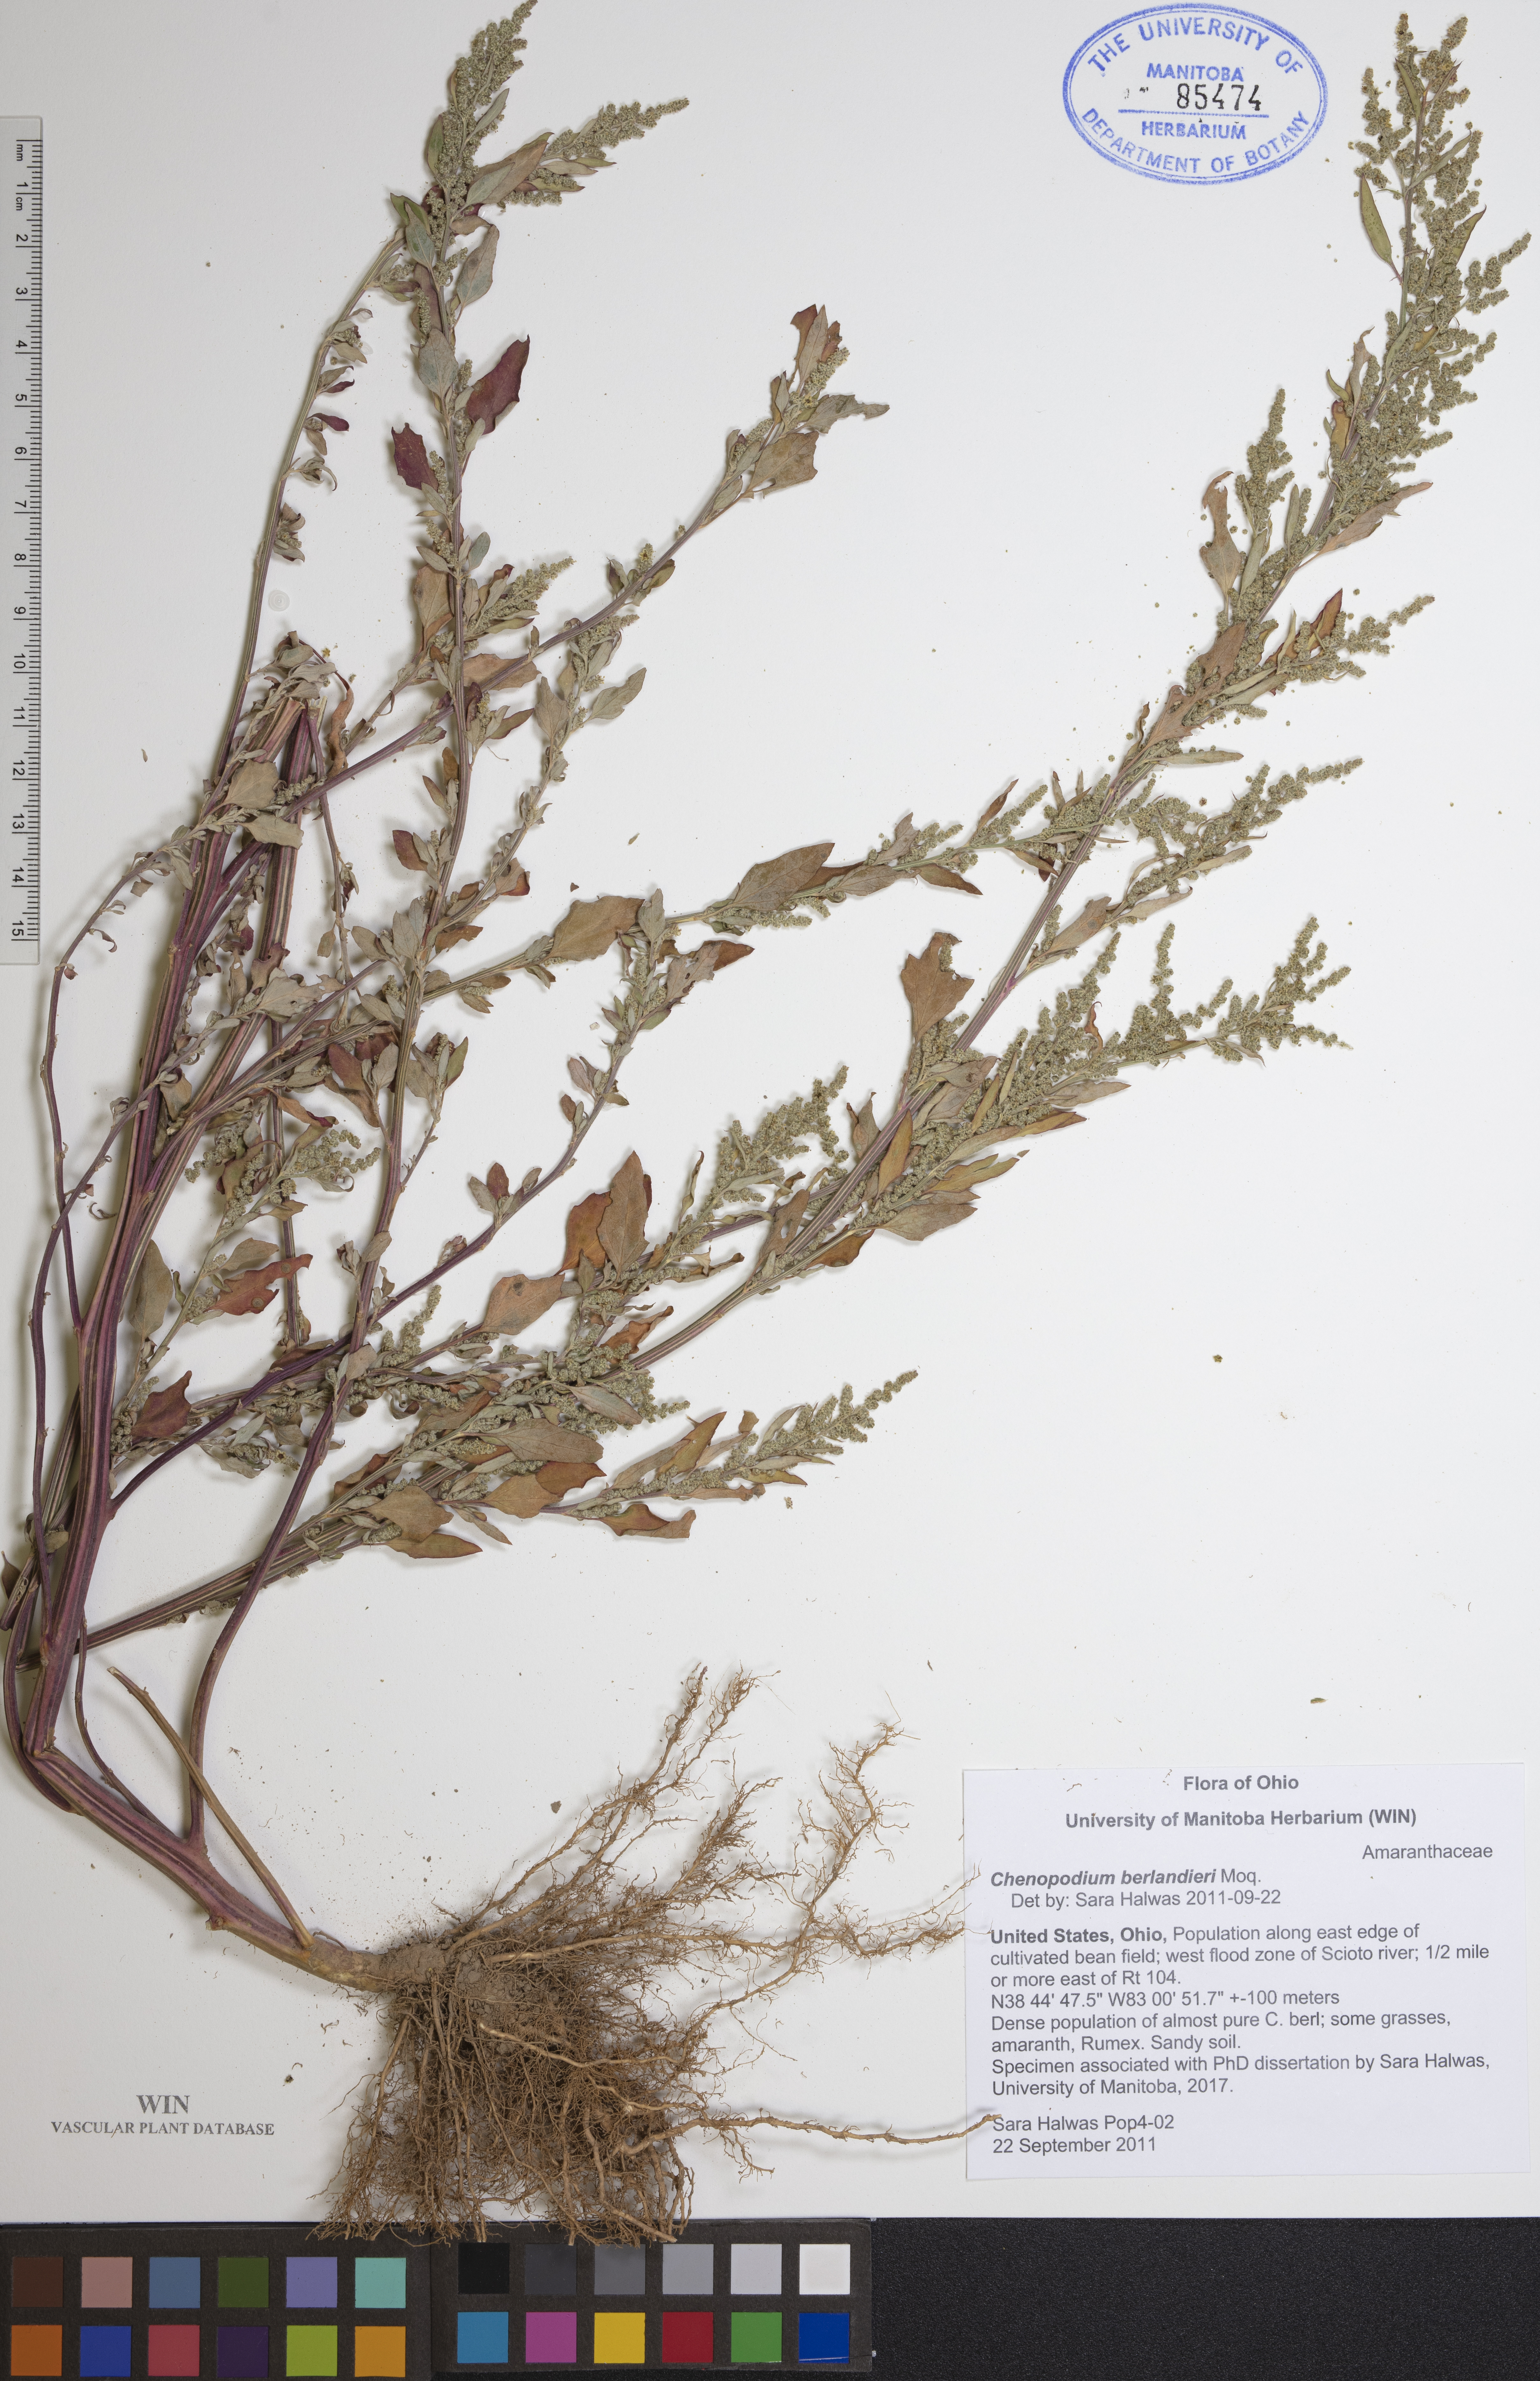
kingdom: Plantae
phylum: Tracheophyta
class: Magnoliopsida
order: Caryophyllales
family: Amaranthaceae
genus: Chenopodium
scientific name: Chenopodium berlandieri
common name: Pit-seed goosefoot
